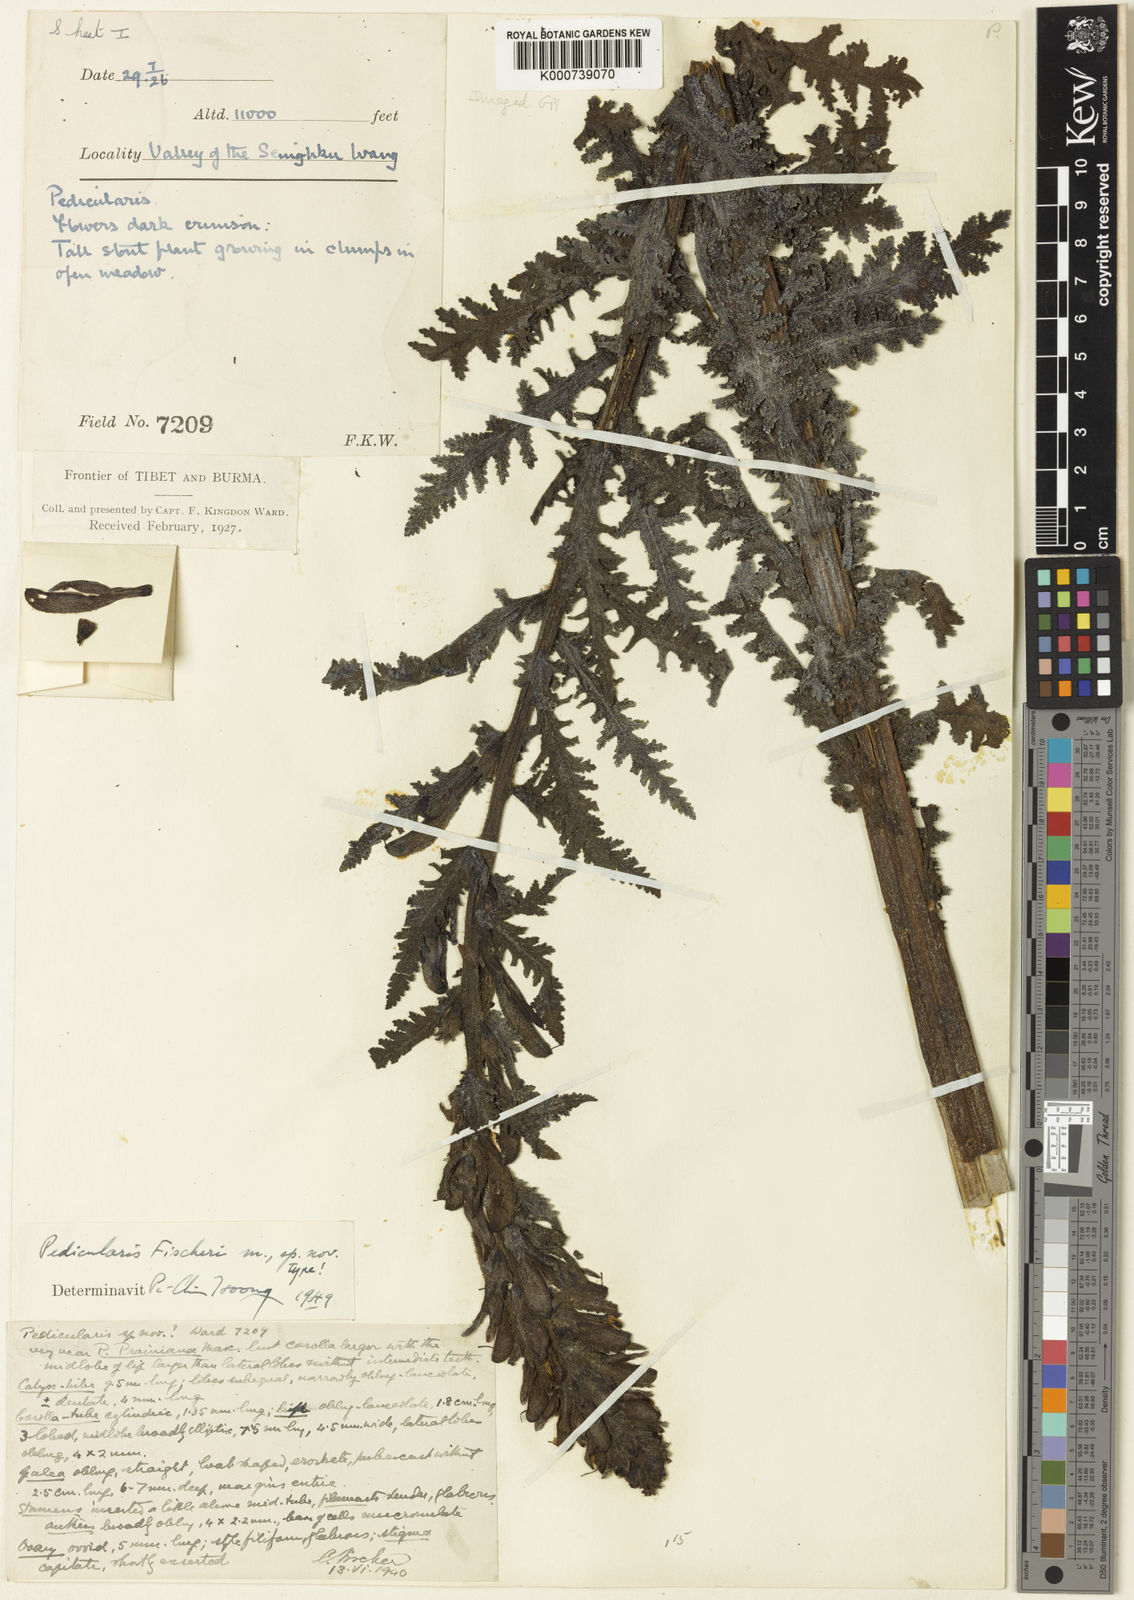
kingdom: Plantae
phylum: Tracheophyta
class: Magnoliopsida
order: Lamiales
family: Orobanchaceae
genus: Pedicularis
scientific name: Pedicularis
